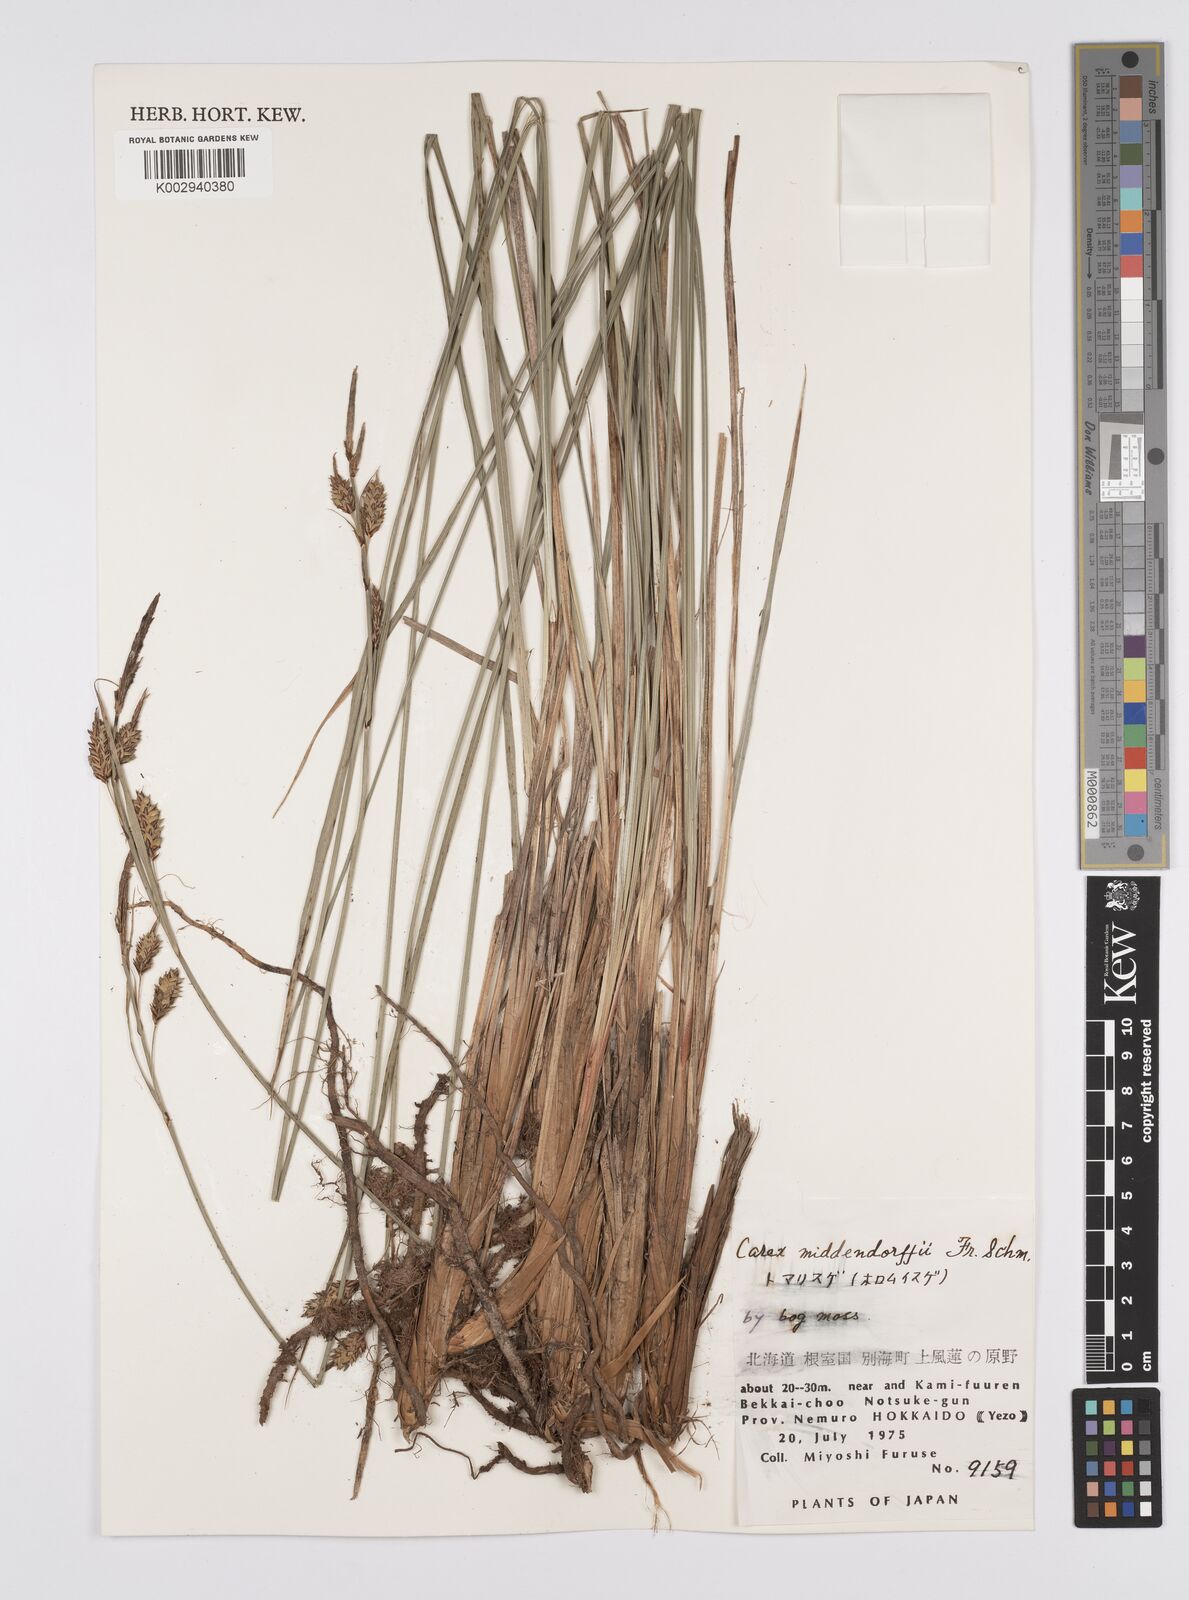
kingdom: Plantae
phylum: Tracheophyta
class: Liliopsida
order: Poales
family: Cyperaceae
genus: Carex
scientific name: Carex middendorffii
